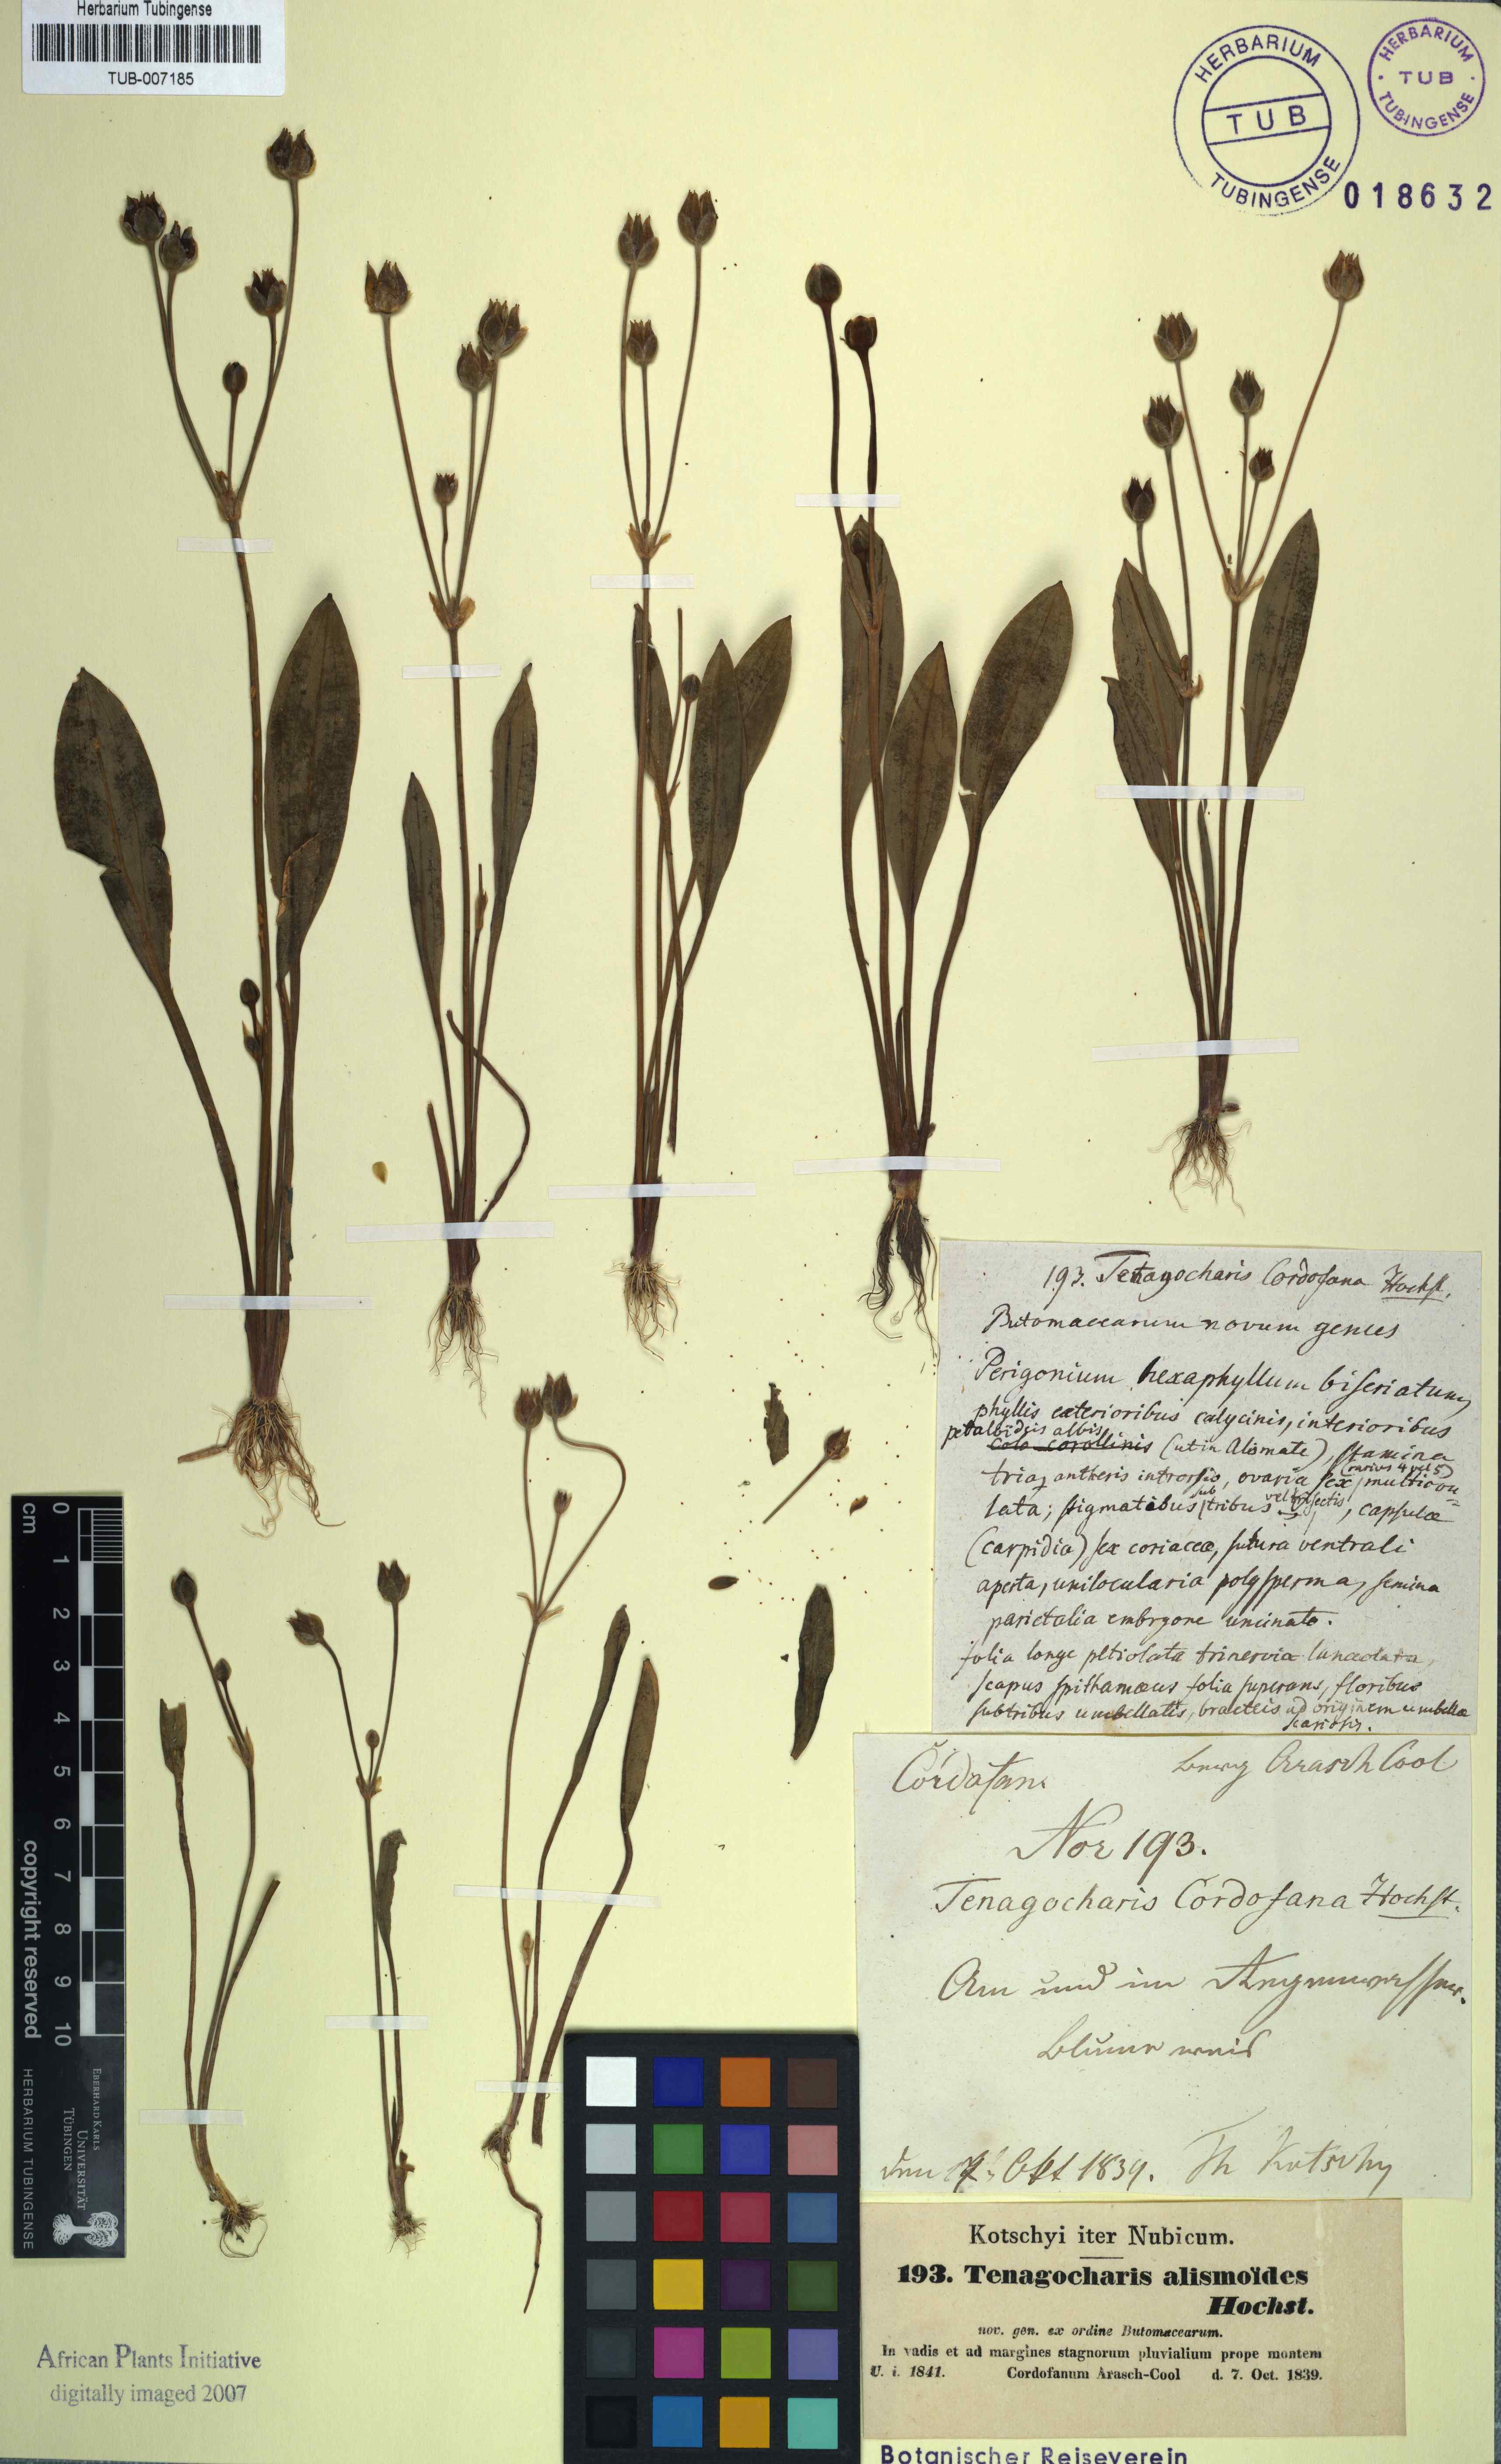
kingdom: Plantae
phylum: Tracheophyta
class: Liliopsida
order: Alismatales
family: Alismataceae
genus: Butomopsis
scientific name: Butomopsis latifolia
